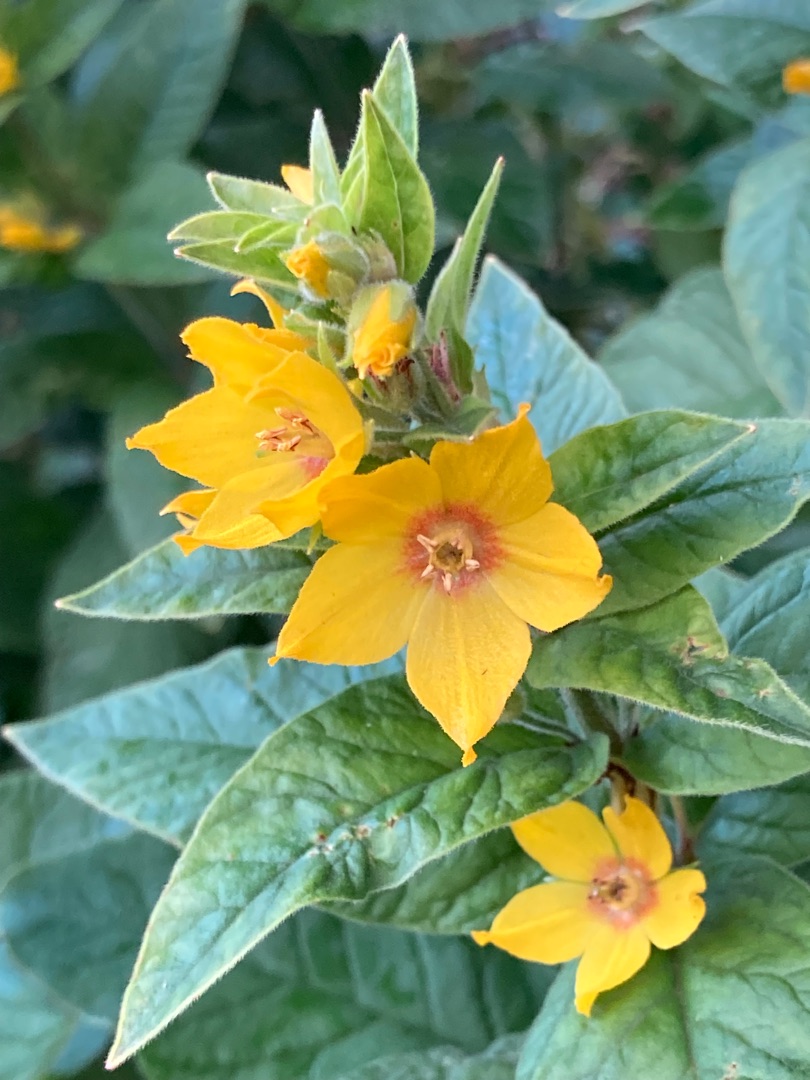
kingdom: Plantae
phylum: Tracheophyta
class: Magnoliopsida
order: Ericales
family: Primulaceae
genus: Lysimachia
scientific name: Lysimachia punctata
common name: Prikbladet fredløs
